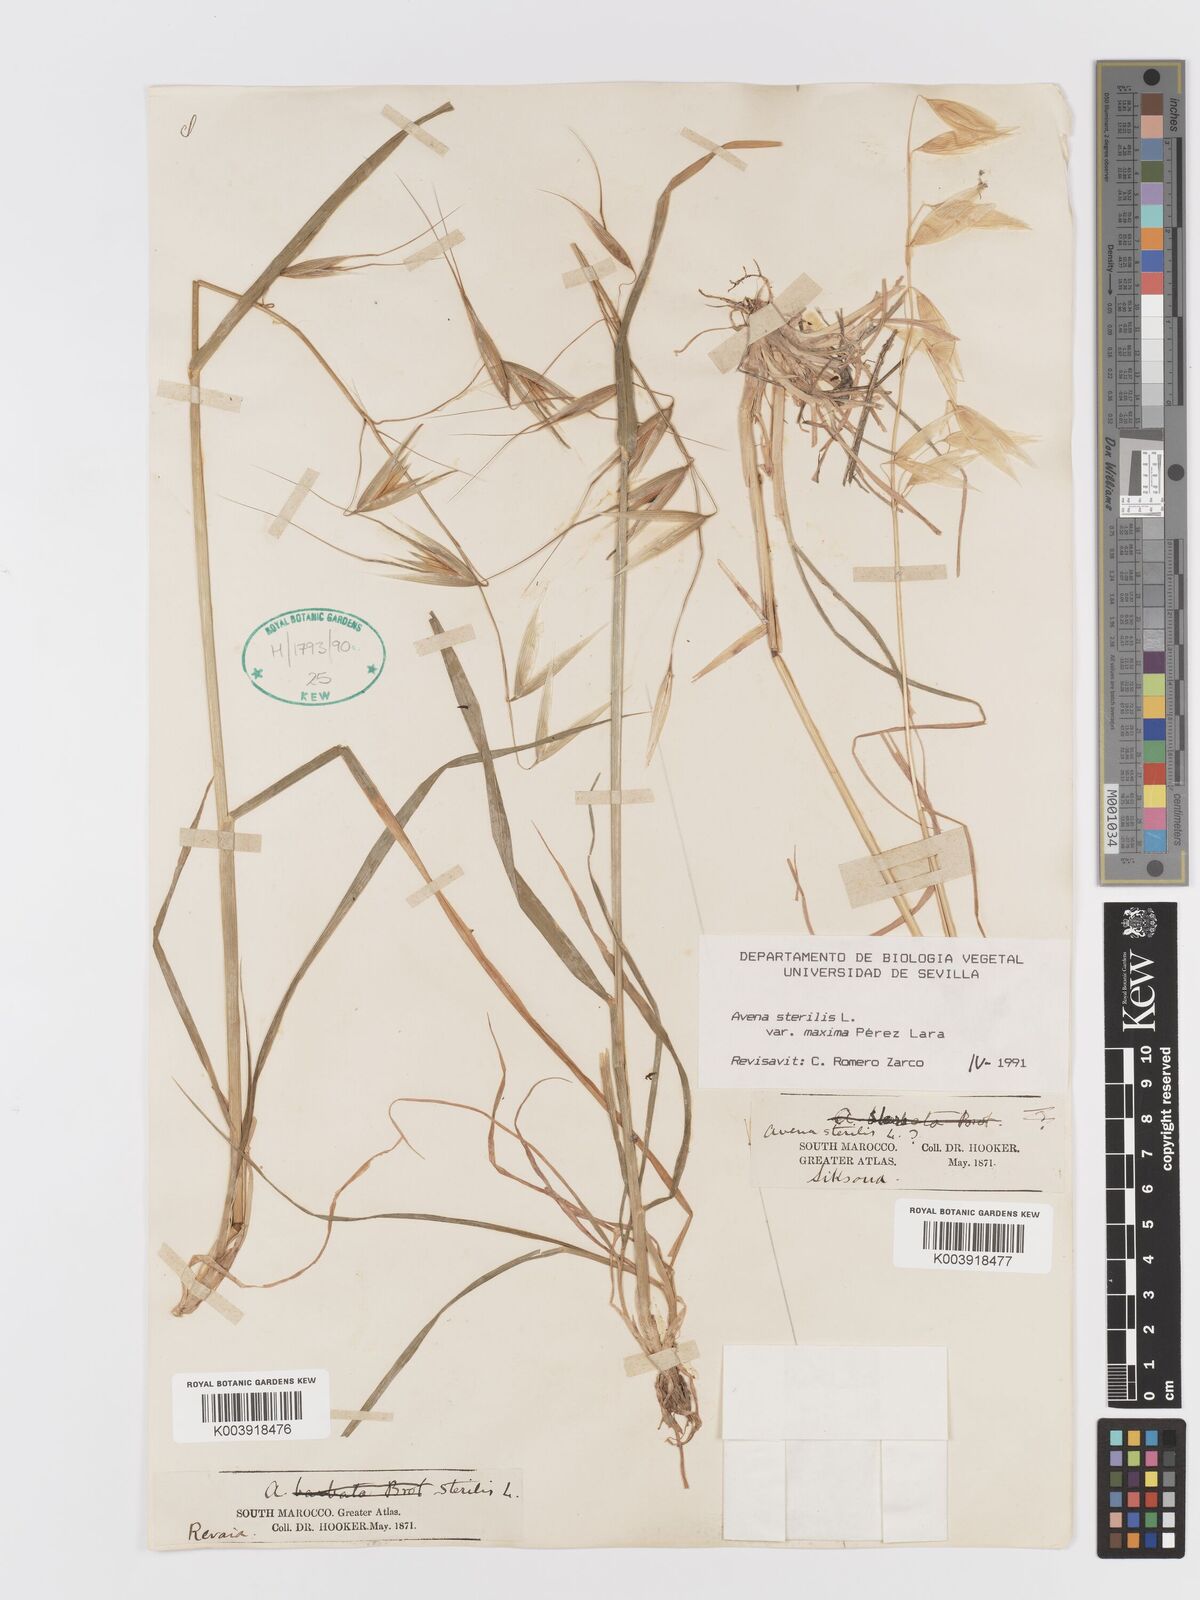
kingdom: Plantae
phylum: Tracheophyta
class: Liliopsida
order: Poales
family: Poaceae
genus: Avena
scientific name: Avena sterilis
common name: Animated oat
